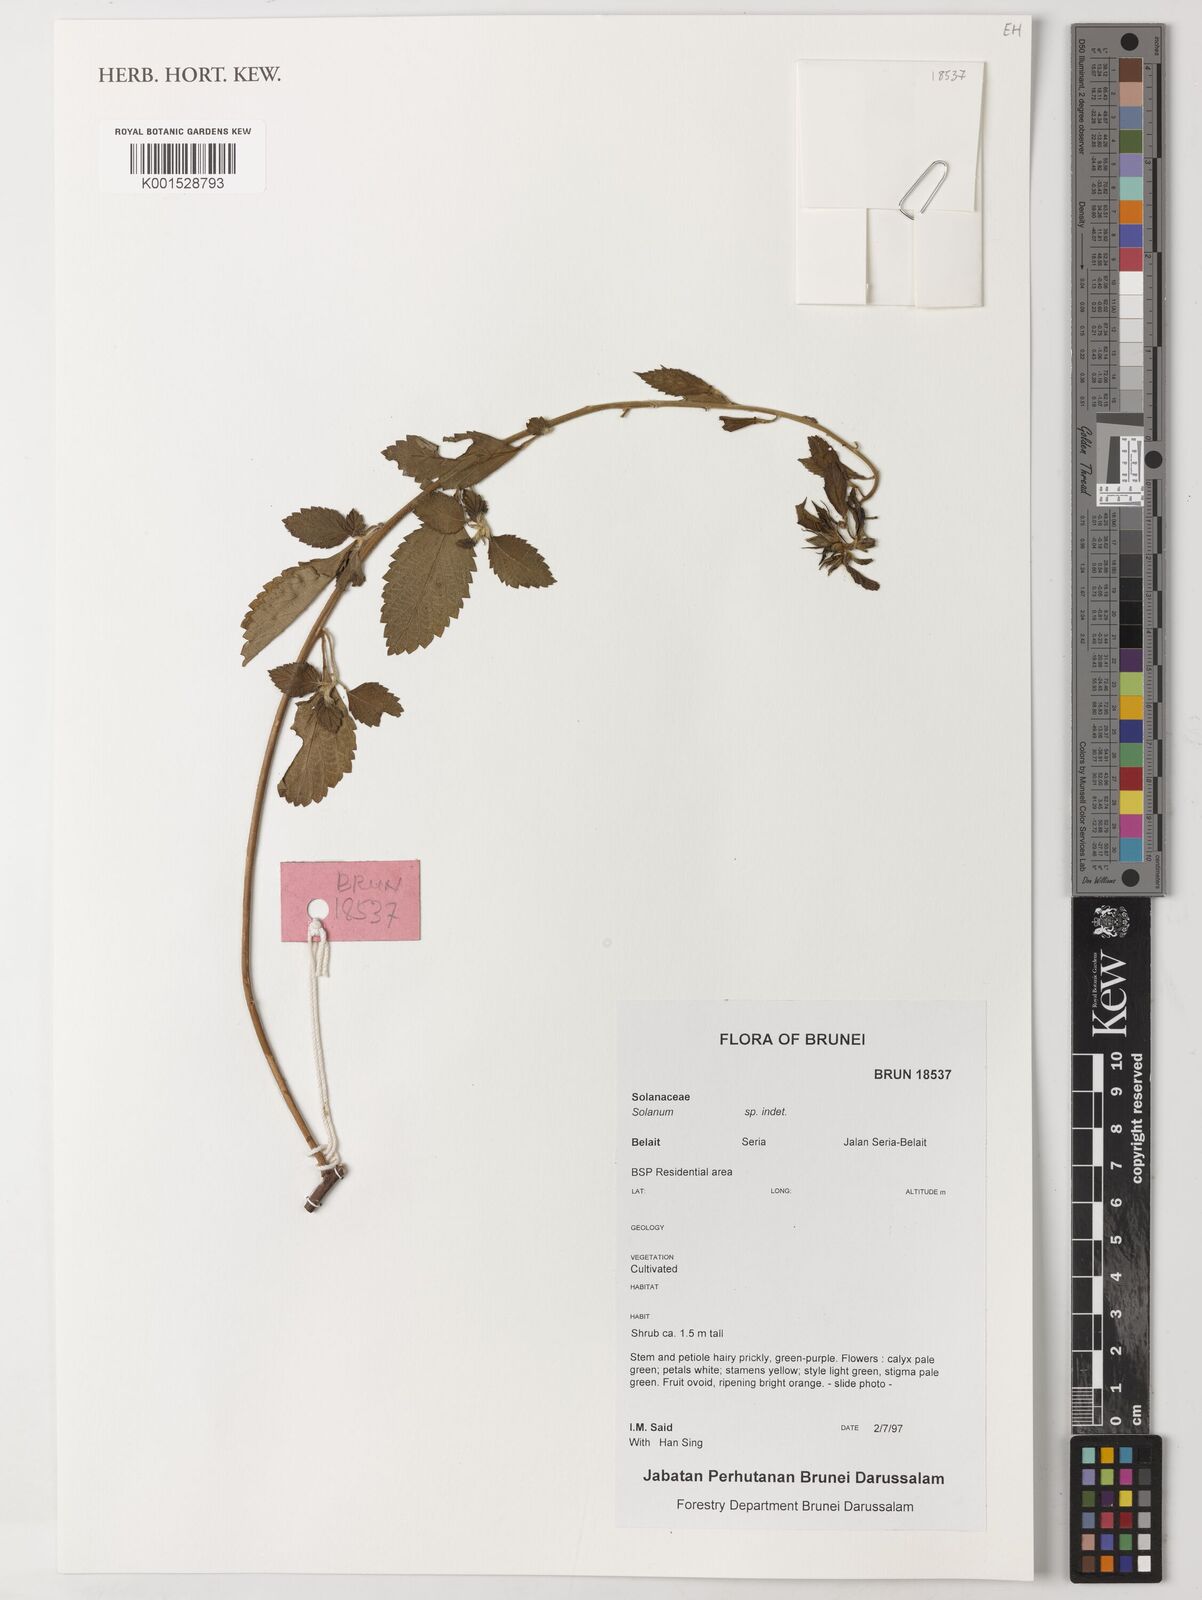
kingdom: Plantae
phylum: Tracheophyta
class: Magnoliopsida
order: Solanales
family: Solanaceae
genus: Solanum
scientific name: Solanum
